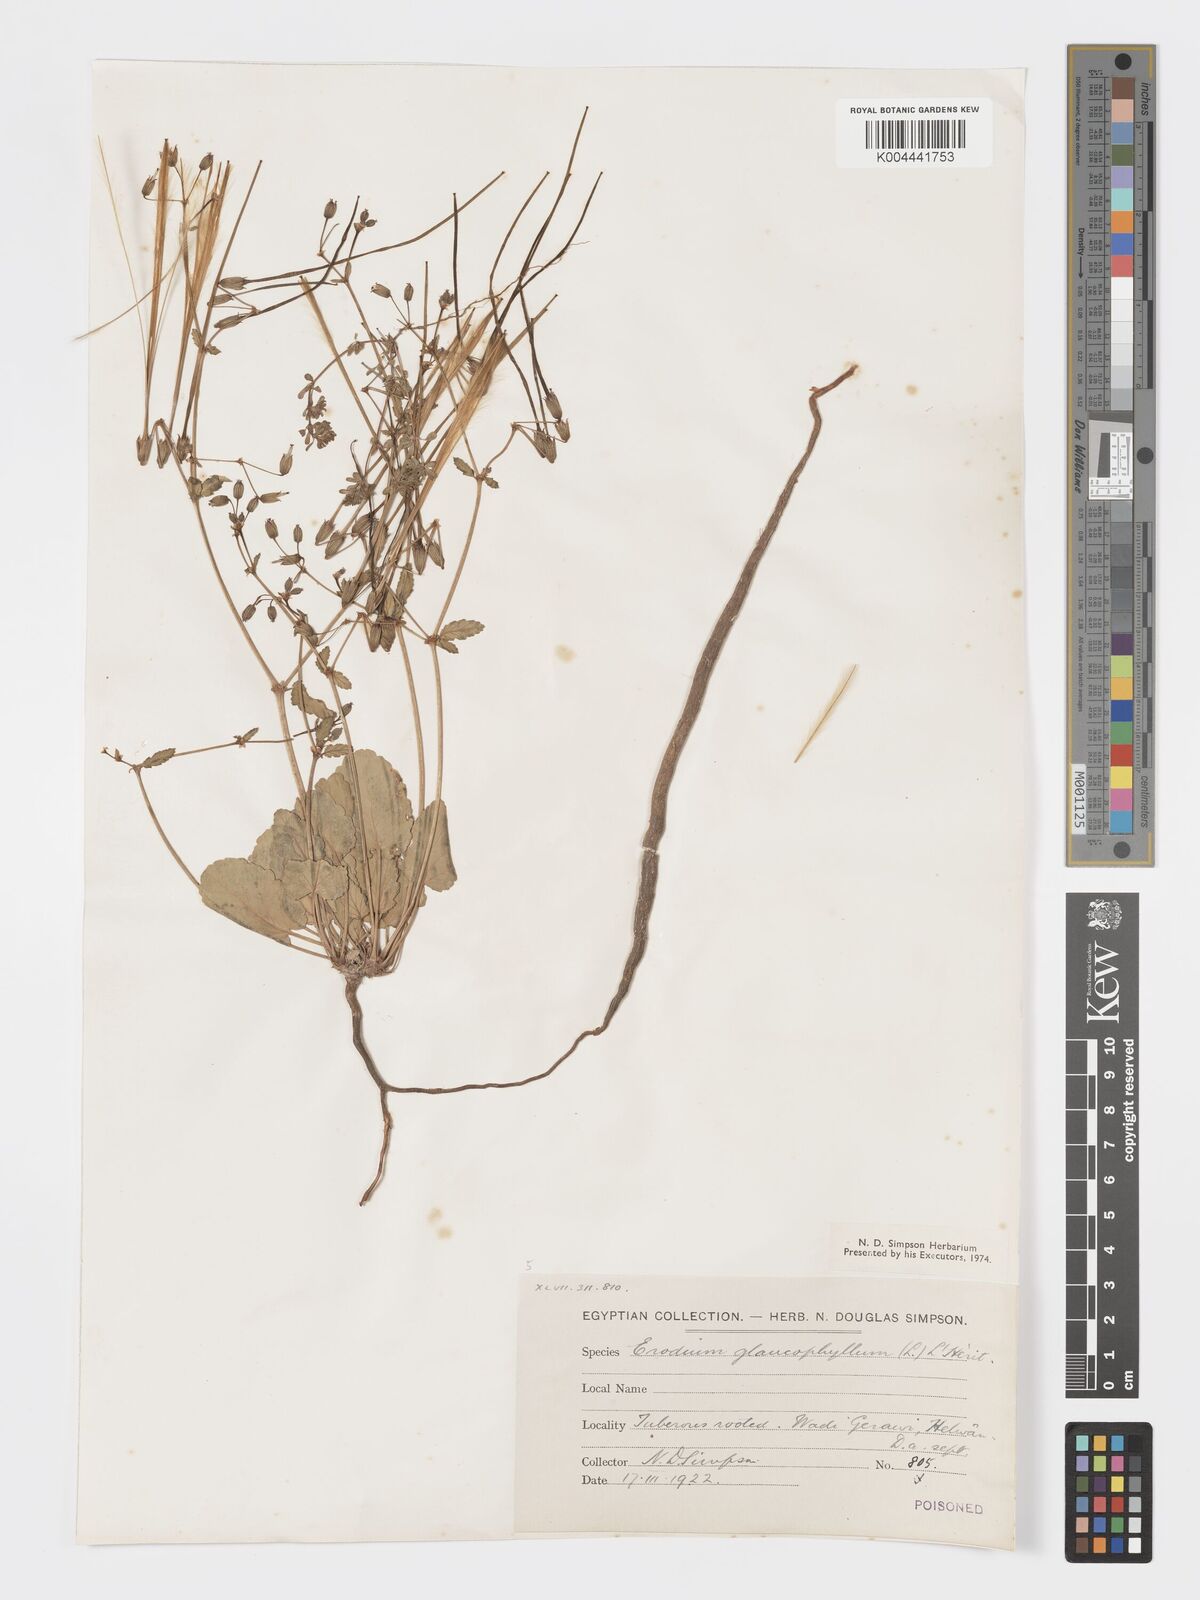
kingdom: Plantae
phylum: Tracheophyta
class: Magnoliopsida
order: Geraniales
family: Geraniaceae
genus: Erodium
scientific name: Erodium glaucophyllum
